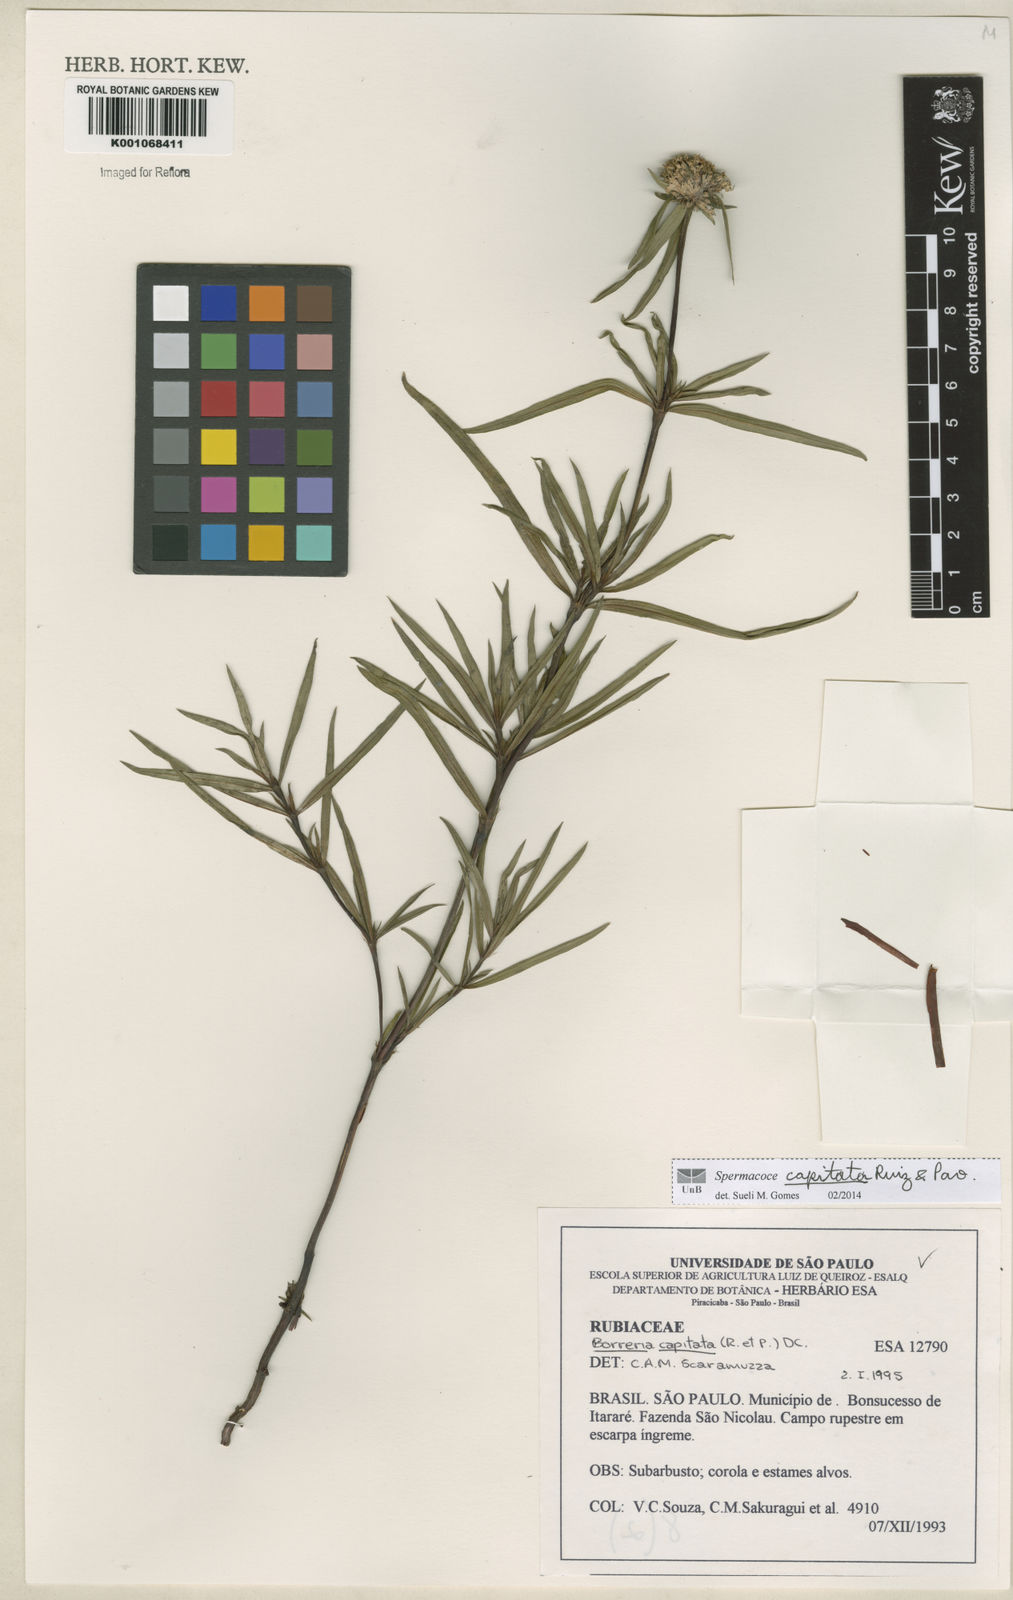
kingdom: Plantae
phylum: Tracheophyta
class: Magnoliopsida
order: Gentianales
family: Rubiaceae
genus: Spermacoce
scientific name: Spermacoce capitata
